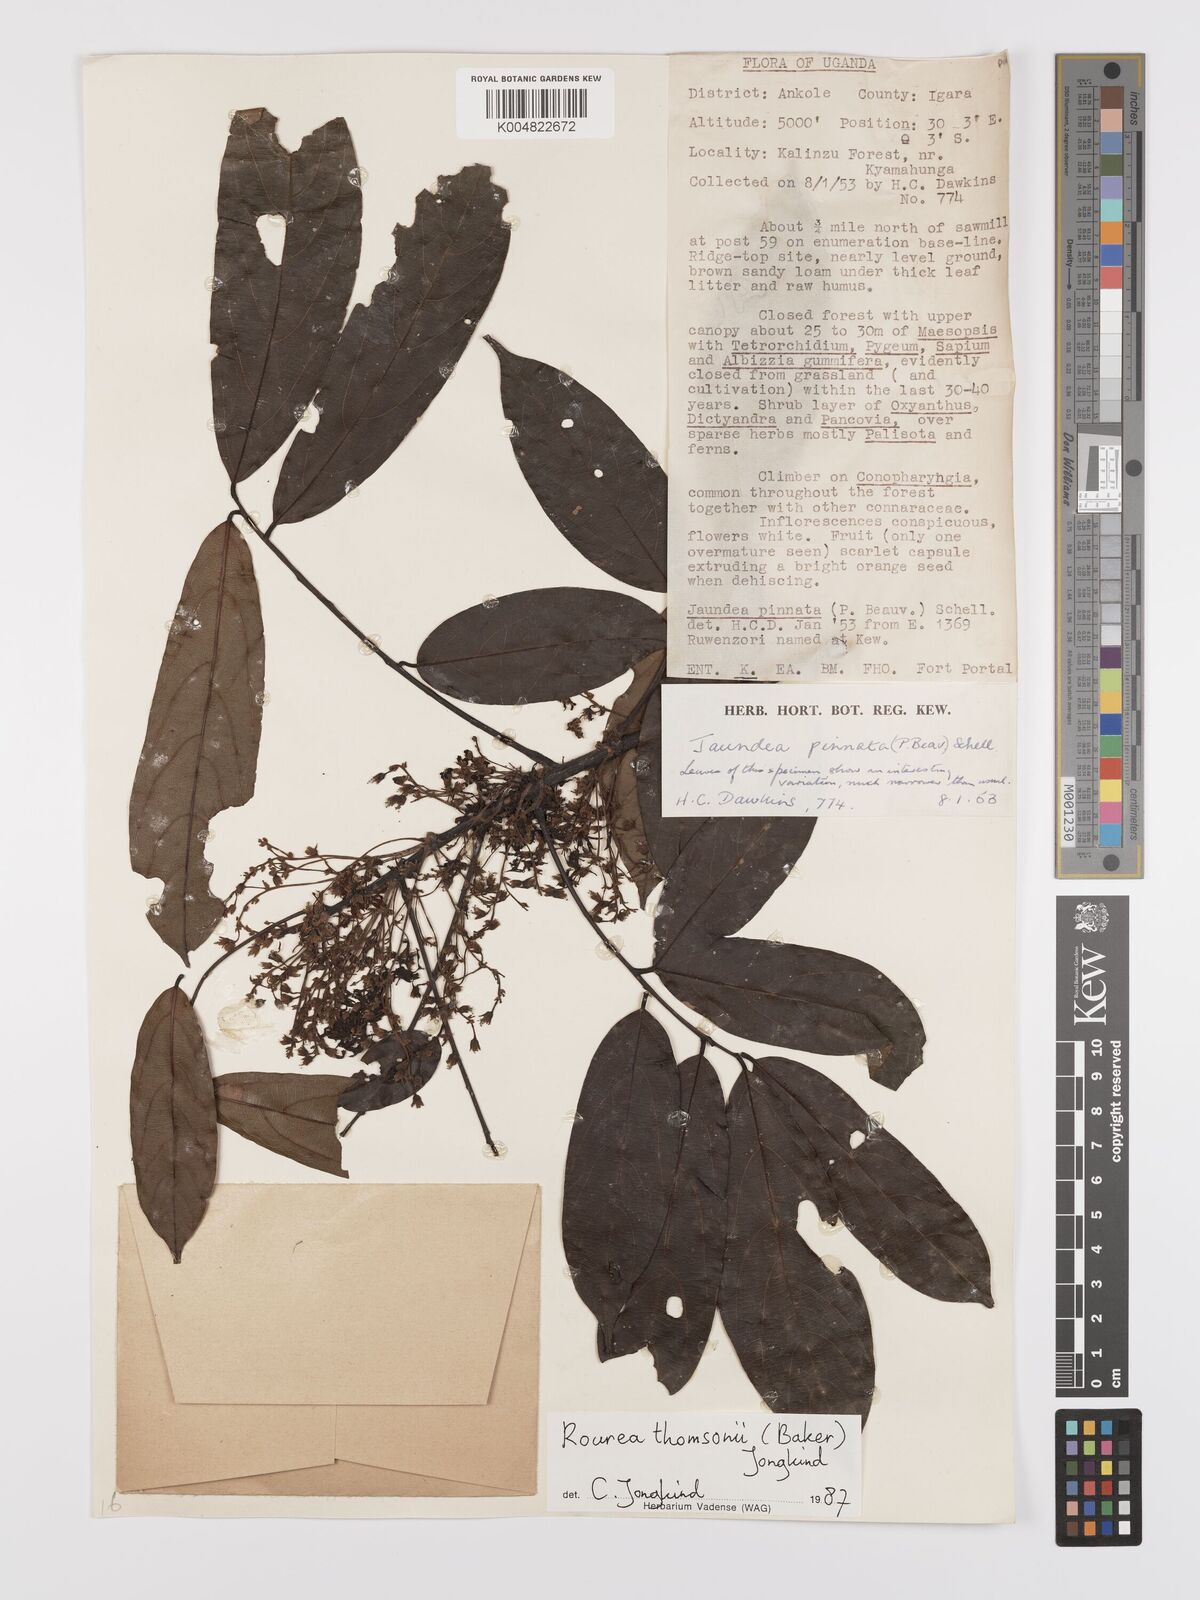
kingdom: Plantae
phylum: Tracheophyta
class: Magnoliopsida
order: Oxalidales
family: Connaraceae
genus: Rourea
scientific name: Rourea pinnata
